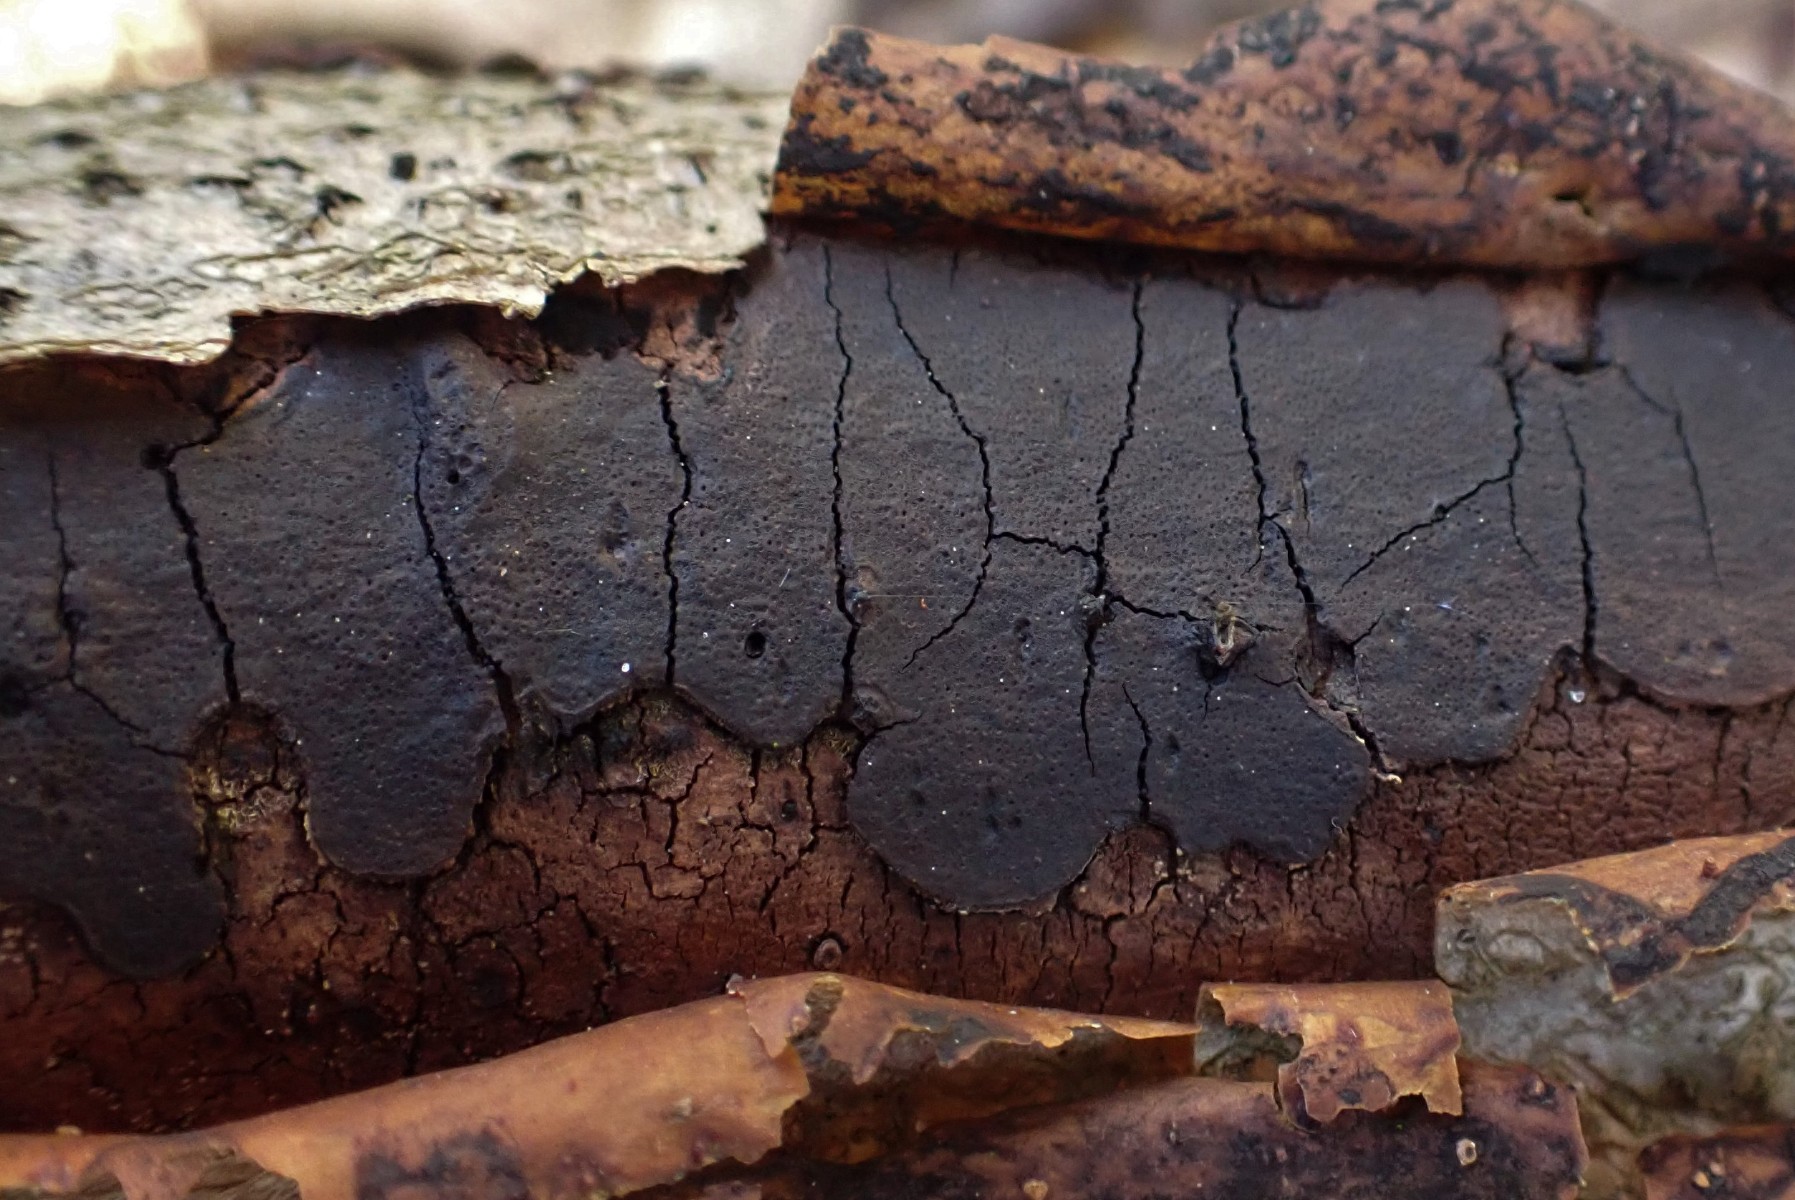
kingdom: Fungi
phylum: Ascomycota
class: Sordariomycetes
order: Xylariales
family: Diatrypaceae
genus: Diatrype
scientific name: Diatrype decorticata
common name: barksprænger-kulskorpe
